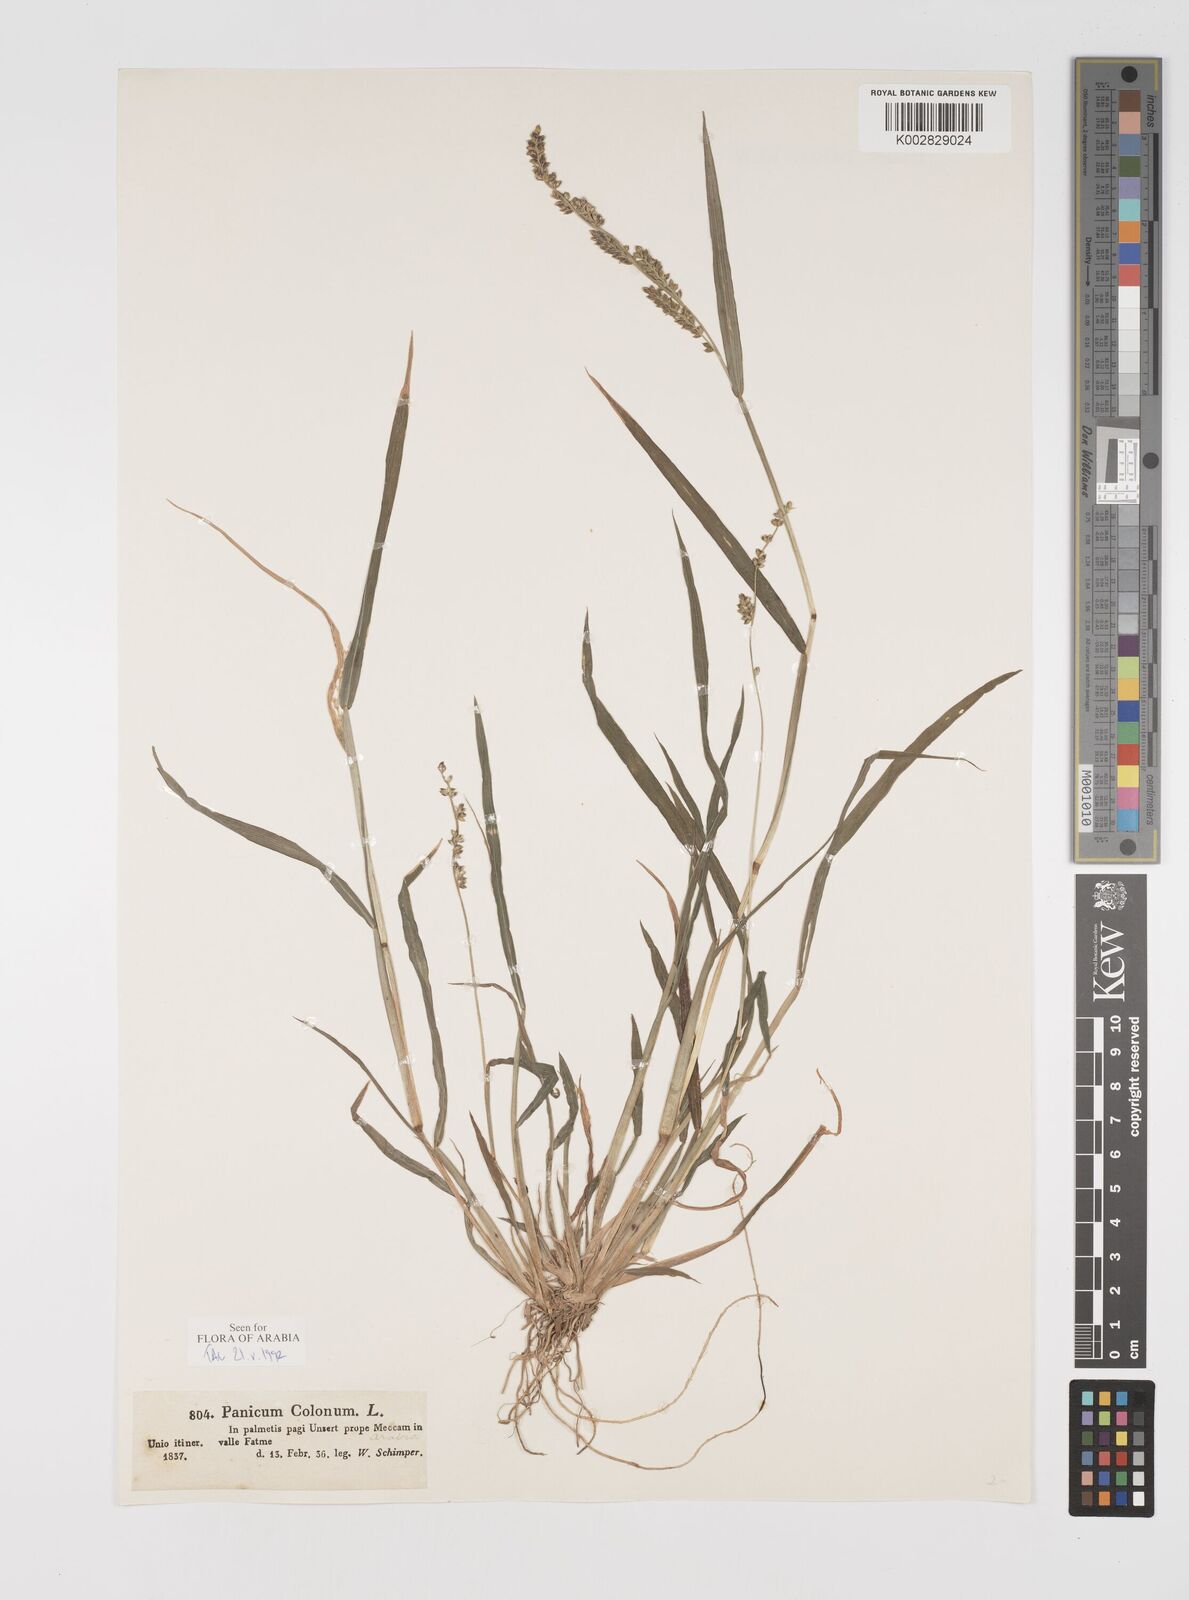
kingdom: Plantae
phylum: Tracheophyta
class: Liliopsida
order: Poales
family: Poaceae
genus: Echinochloa
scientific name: Echinochloa colonum
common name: Jungle rice
